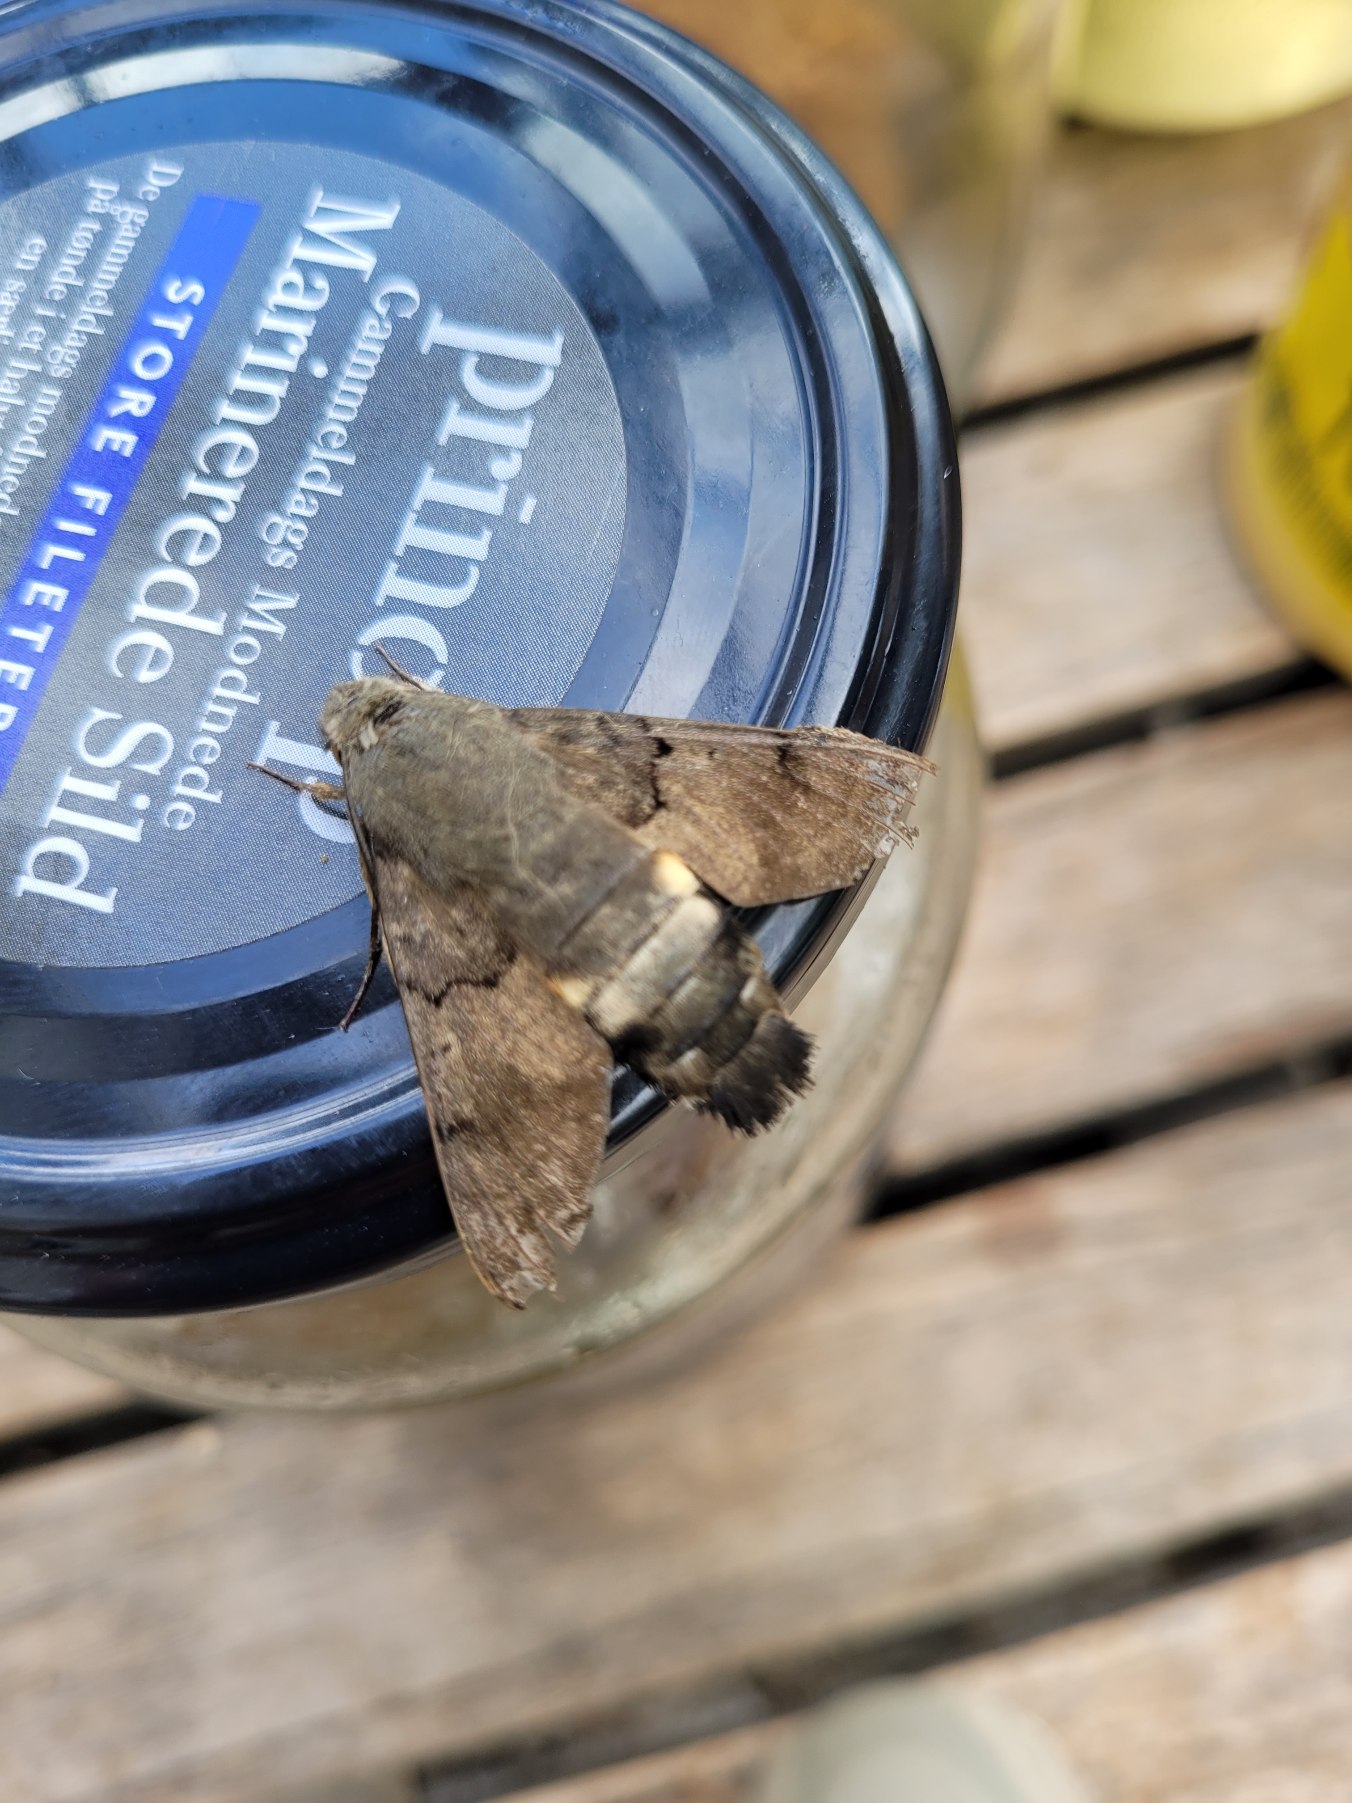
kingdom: Animalia
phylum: Arthropoda
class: Insecta
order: Lepidoptera
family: Sphingidae
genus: Macroglossum
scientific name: Macroglossum stellatarum
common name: Duehale
